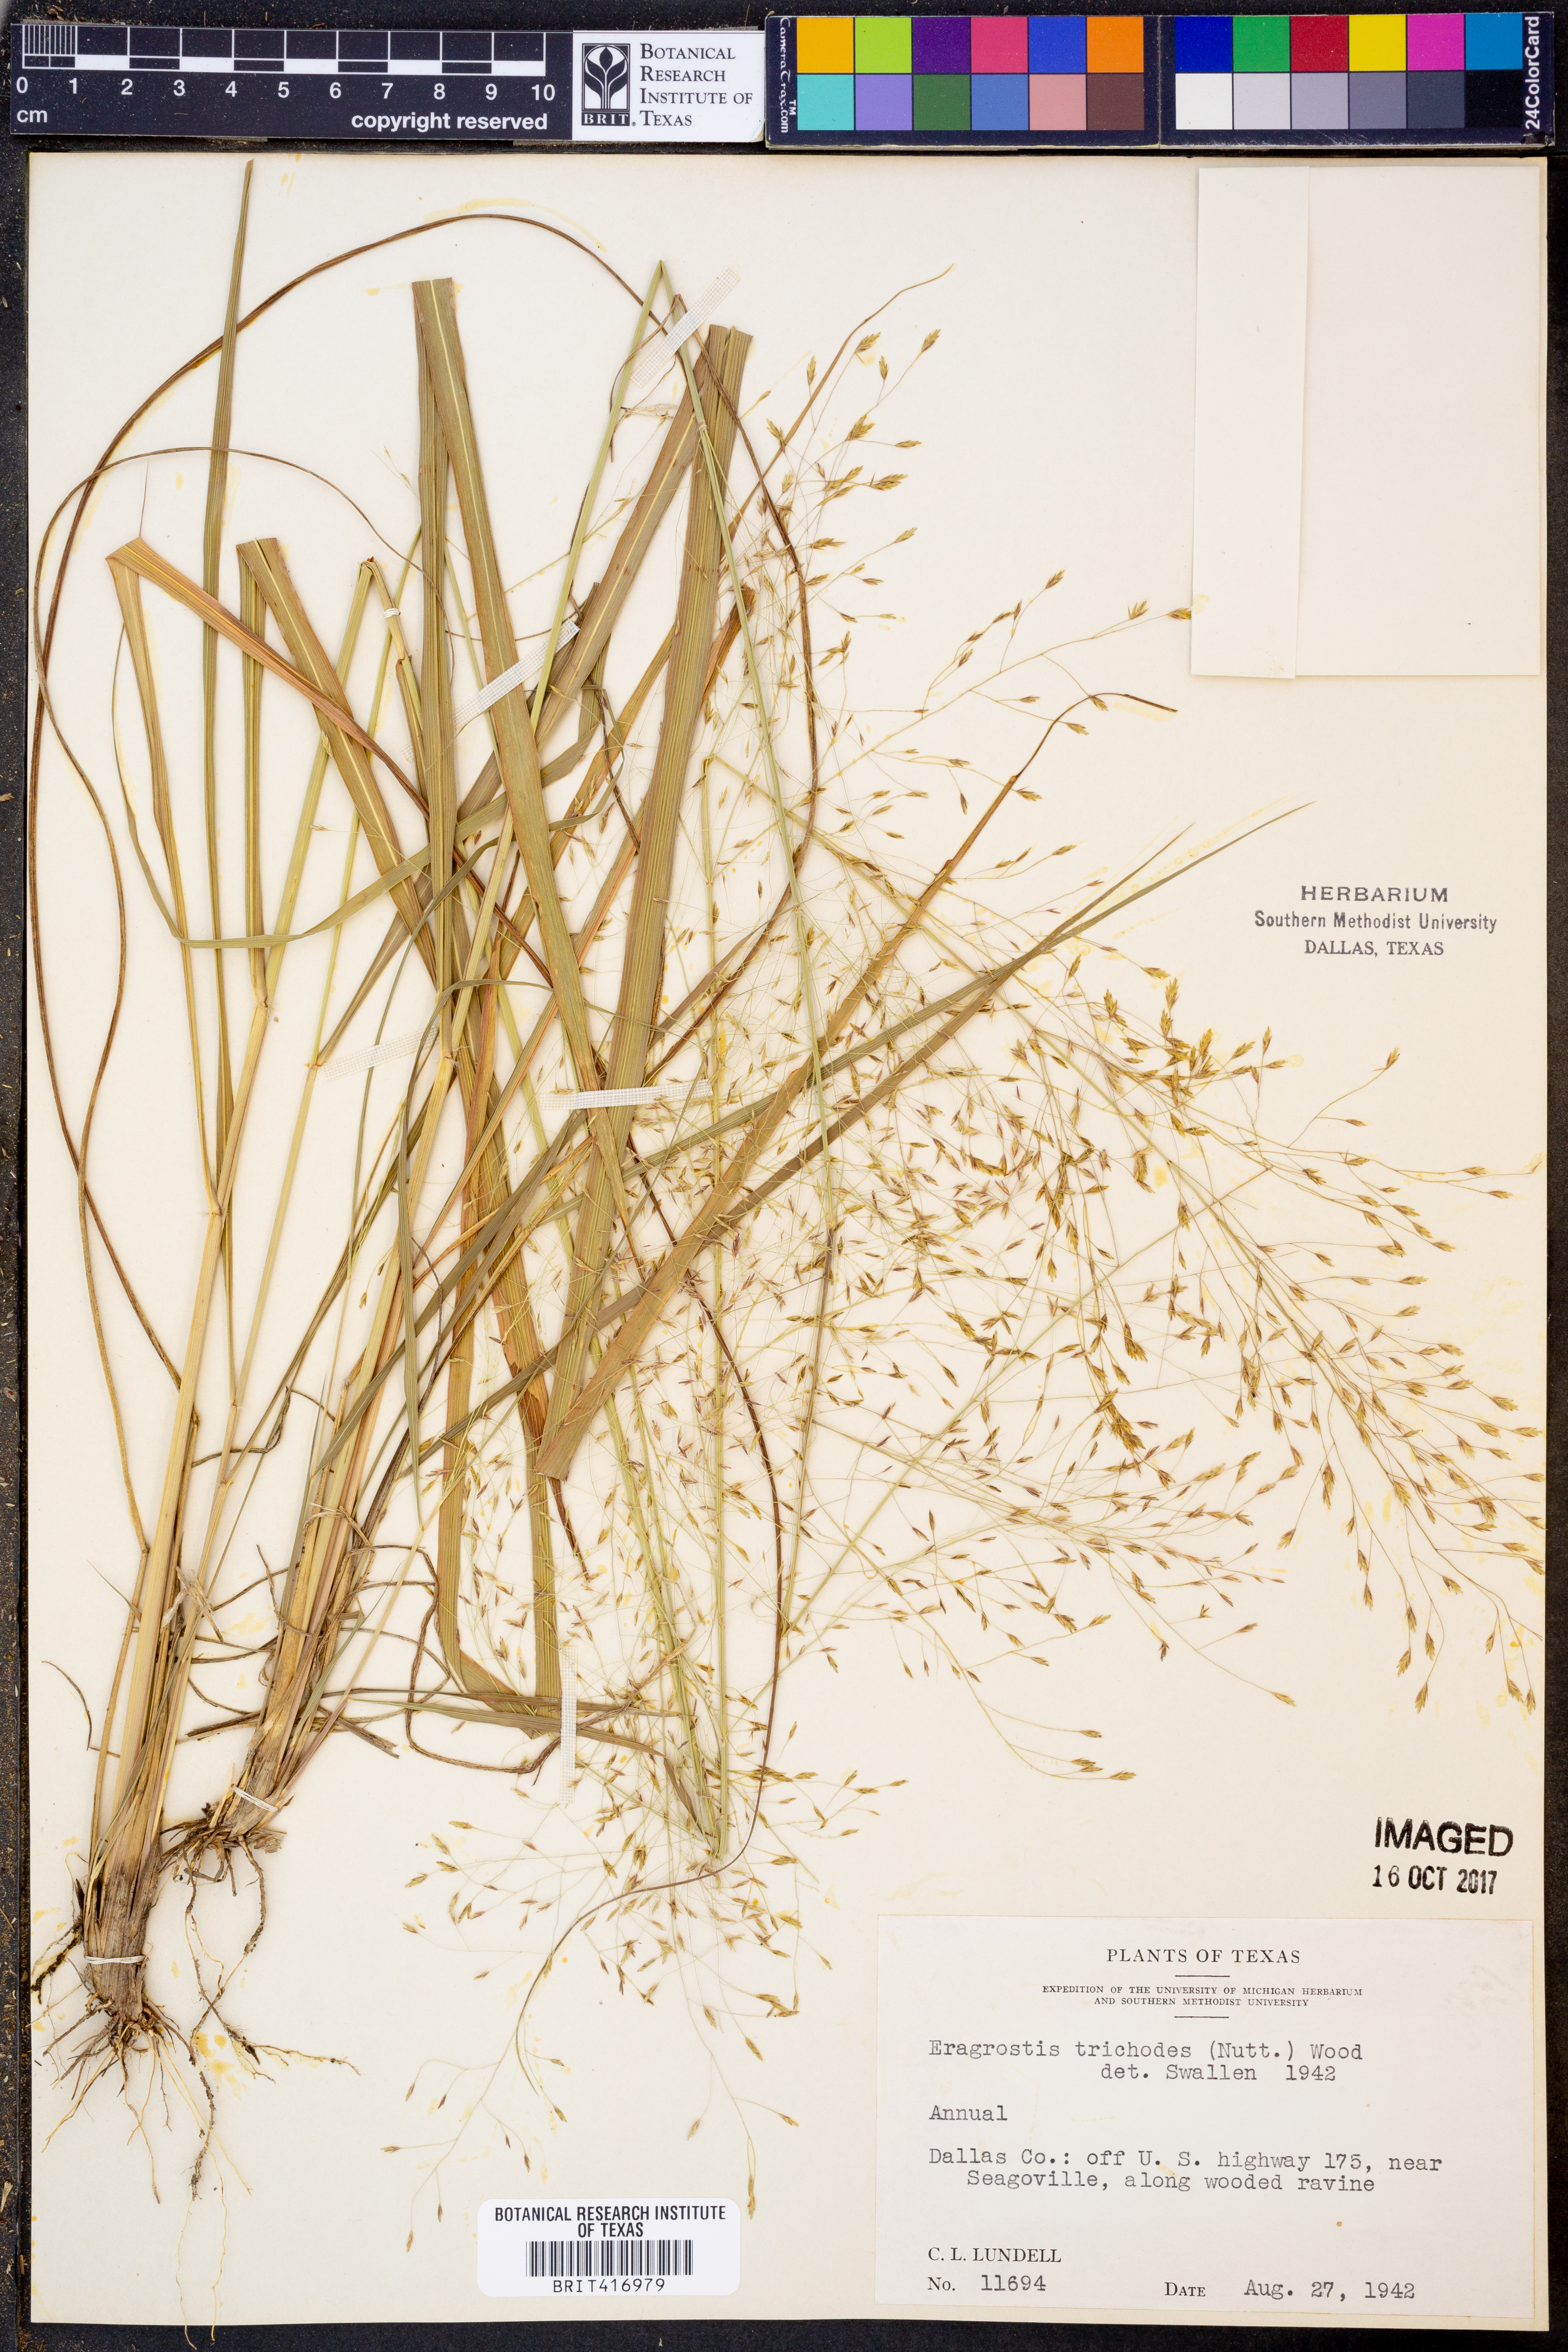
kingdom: Plantae
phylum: Tracheophyta
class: Liliopsida
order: Poales
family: Poaceae
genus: Eragrostis
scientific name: Eragrostis trichodes
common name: Sand love grass
